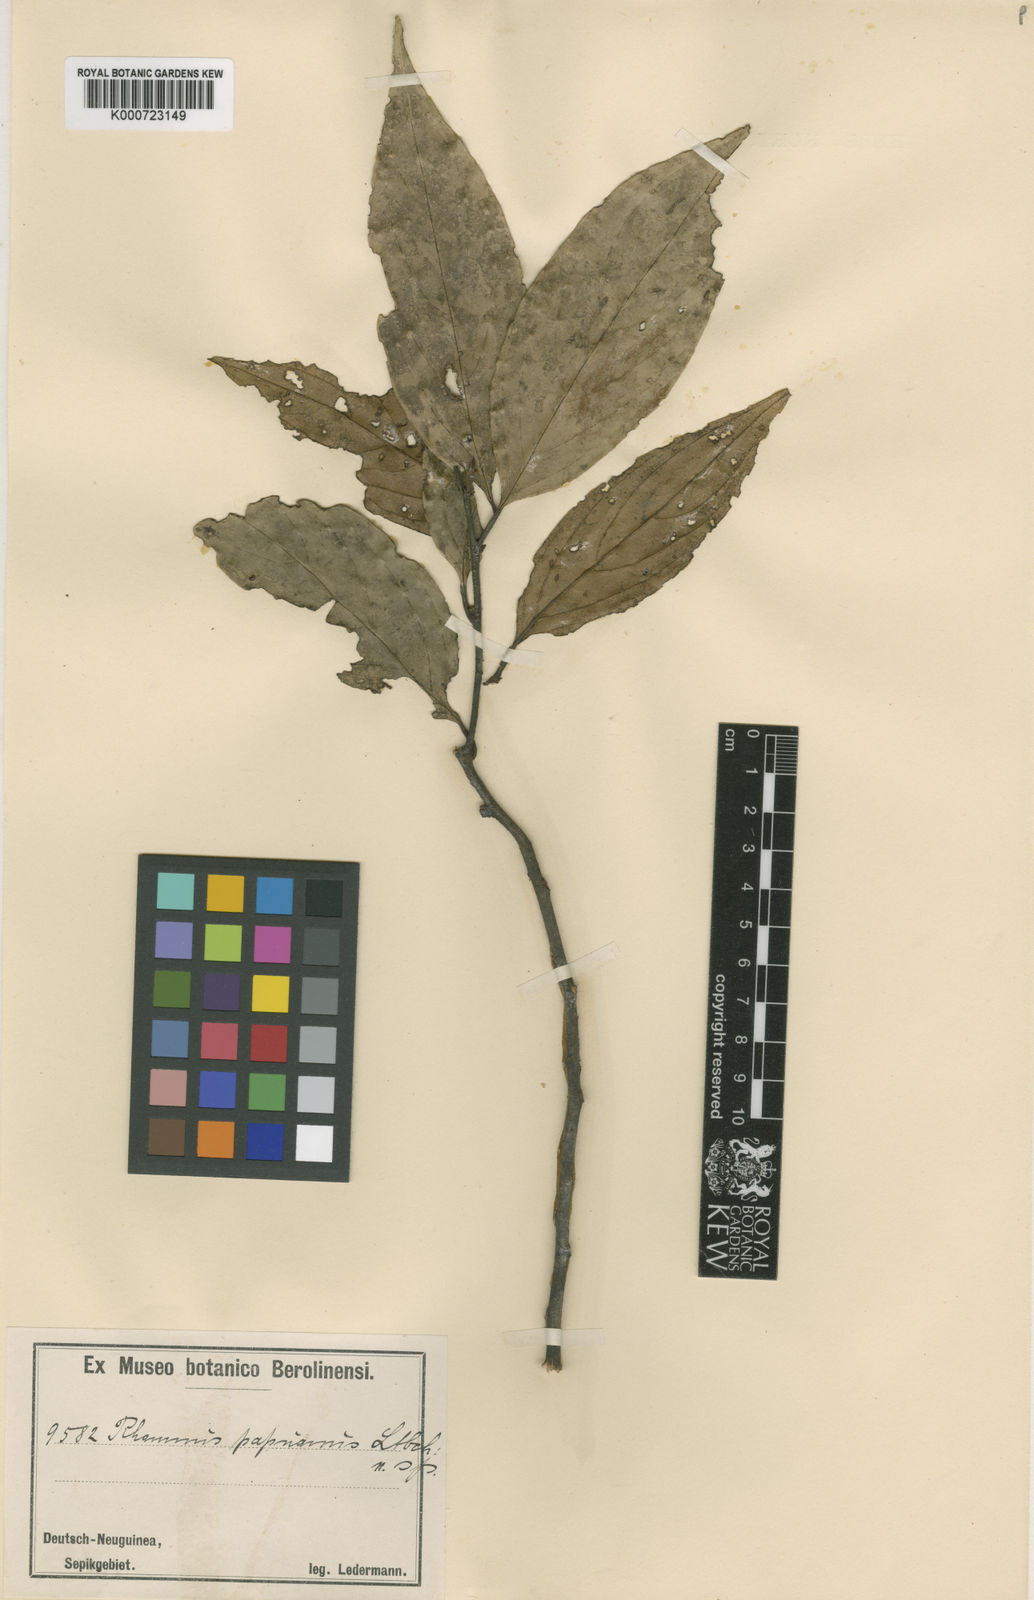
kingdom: Plantae
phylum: Tracheophyta
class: Magnoliopsida
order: Rosales
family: Rhamnaceae
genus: Rhamnus
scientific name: Rhamnus papuana
